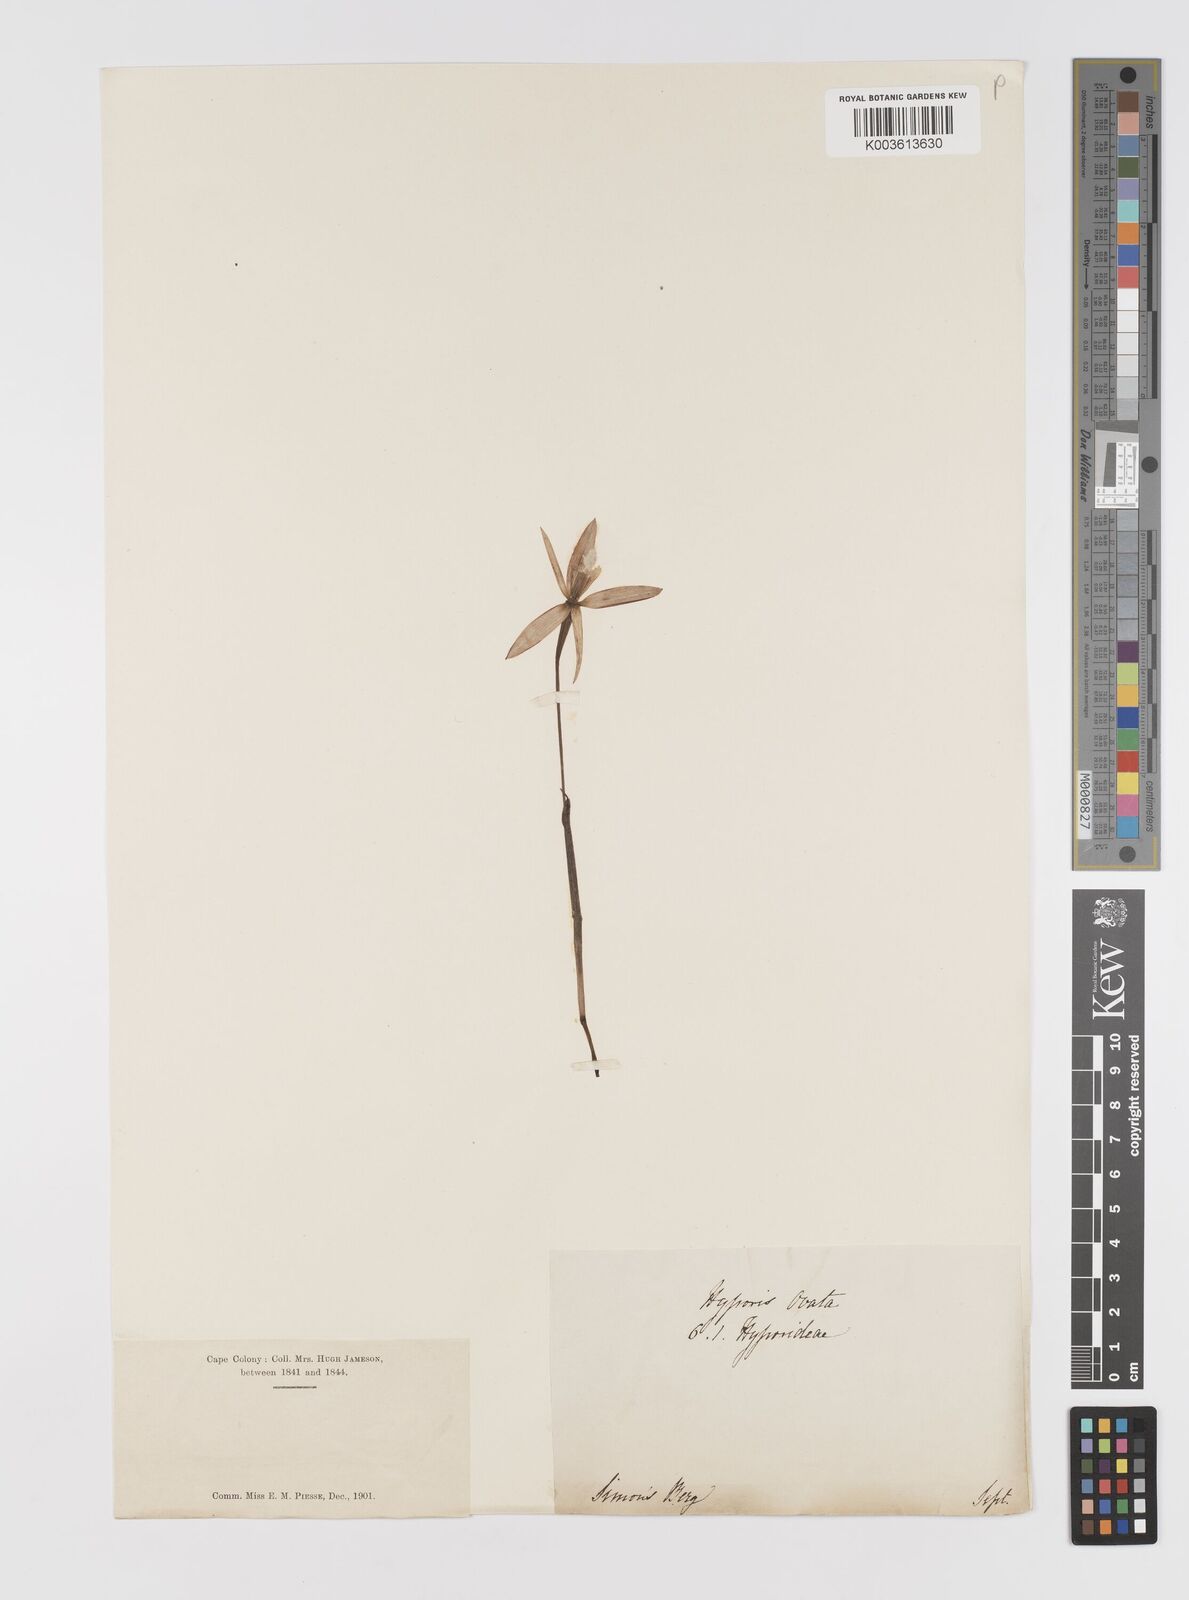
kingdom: Plantae
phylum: Tracheophyta
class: Liliopsida
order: Asparagales
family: Hypoxidaceae
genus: Pauridia
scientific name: Pauridia
